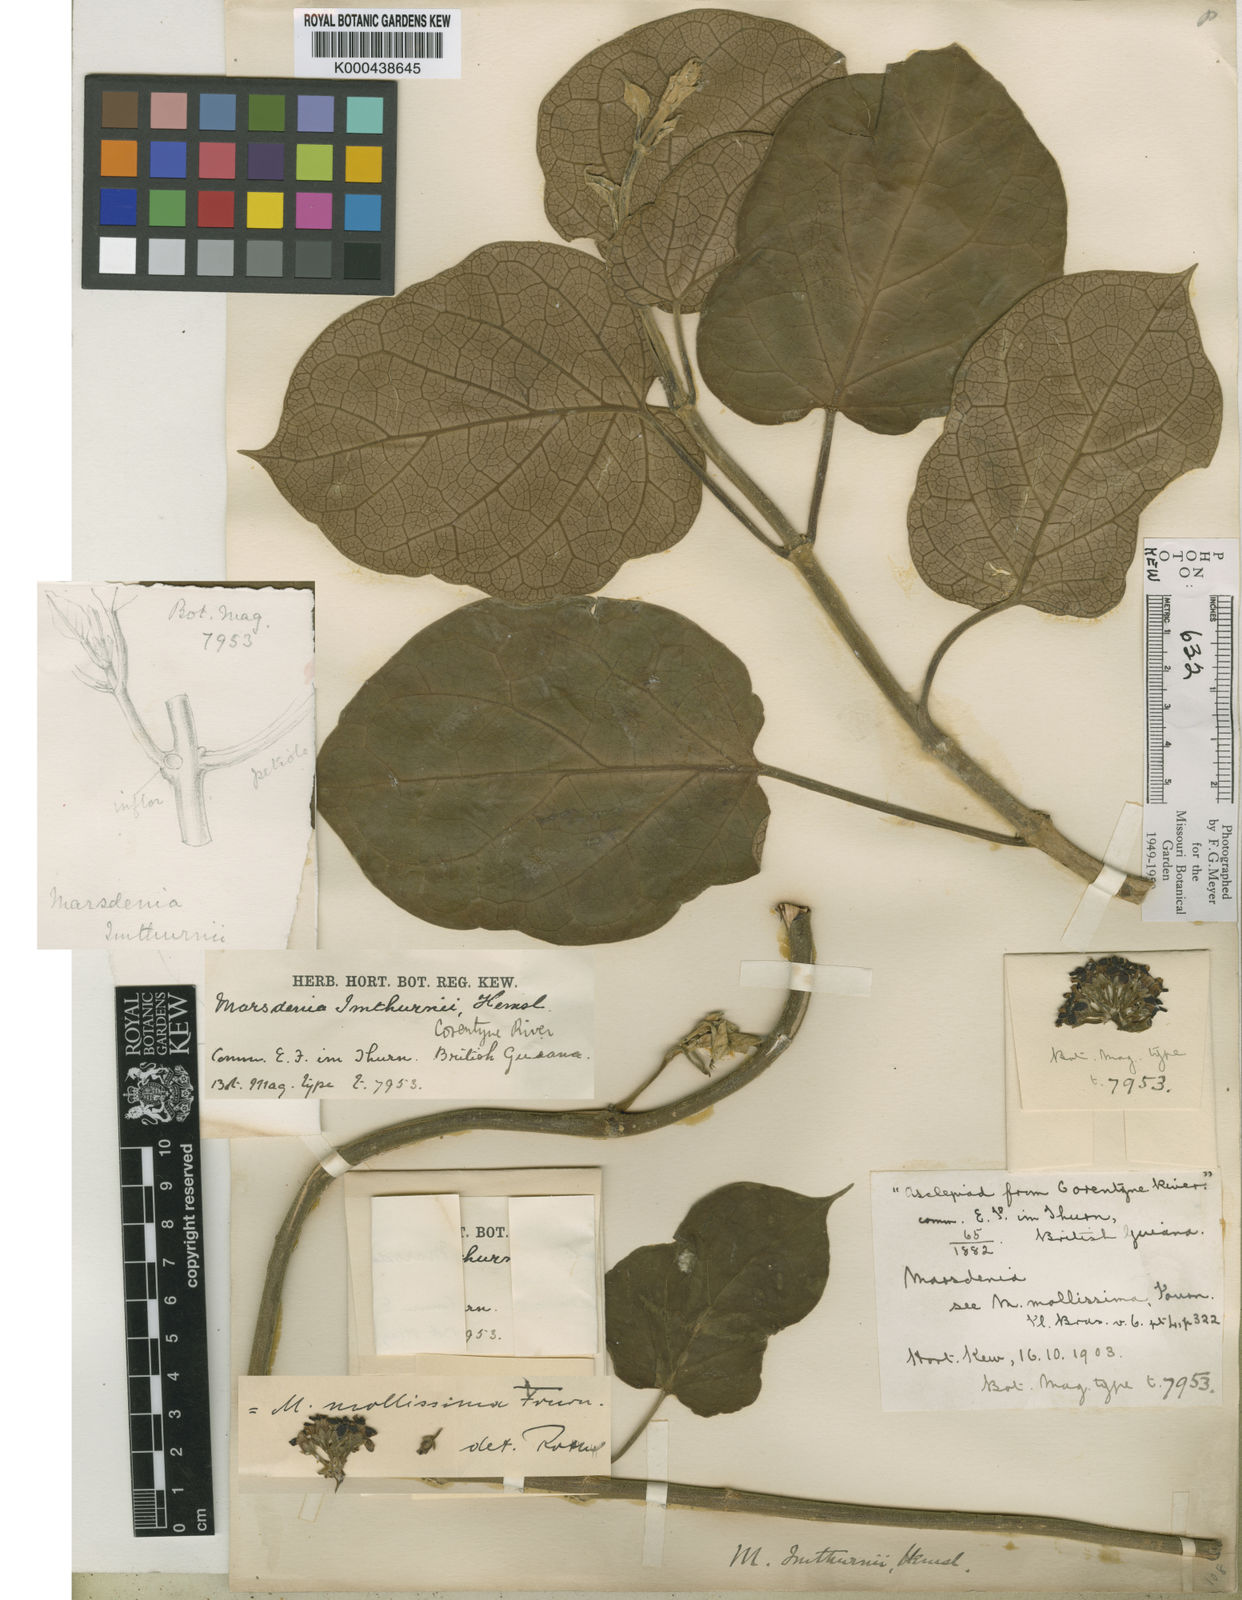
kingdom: Plantae
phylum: Tracheophyta
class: Magnoliopsida
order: Gentianales
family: Apocynaceae
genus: Ruehssia
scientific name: Ruehssia altissima
